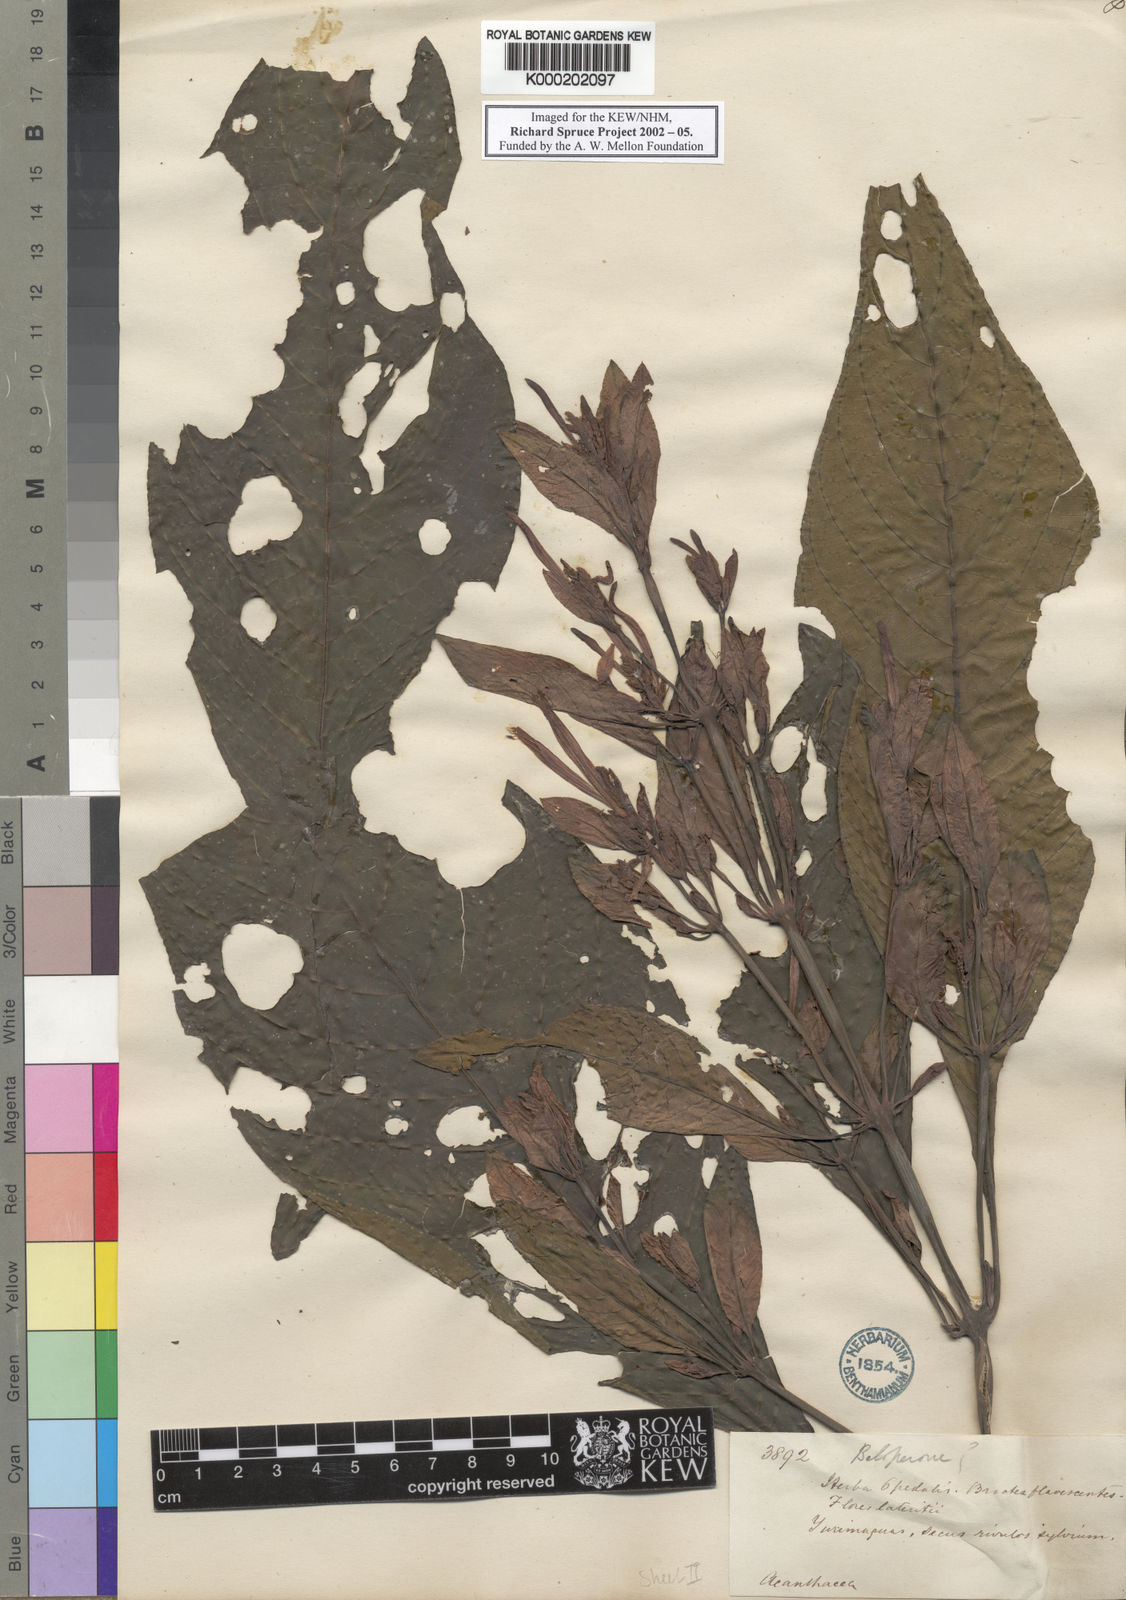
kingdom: Plantae
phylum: Tracheophyta
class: Magnoliopsida
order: Lamiales
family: Acanthaceae
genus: Dianthera
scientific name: Dianthera appendiculata
